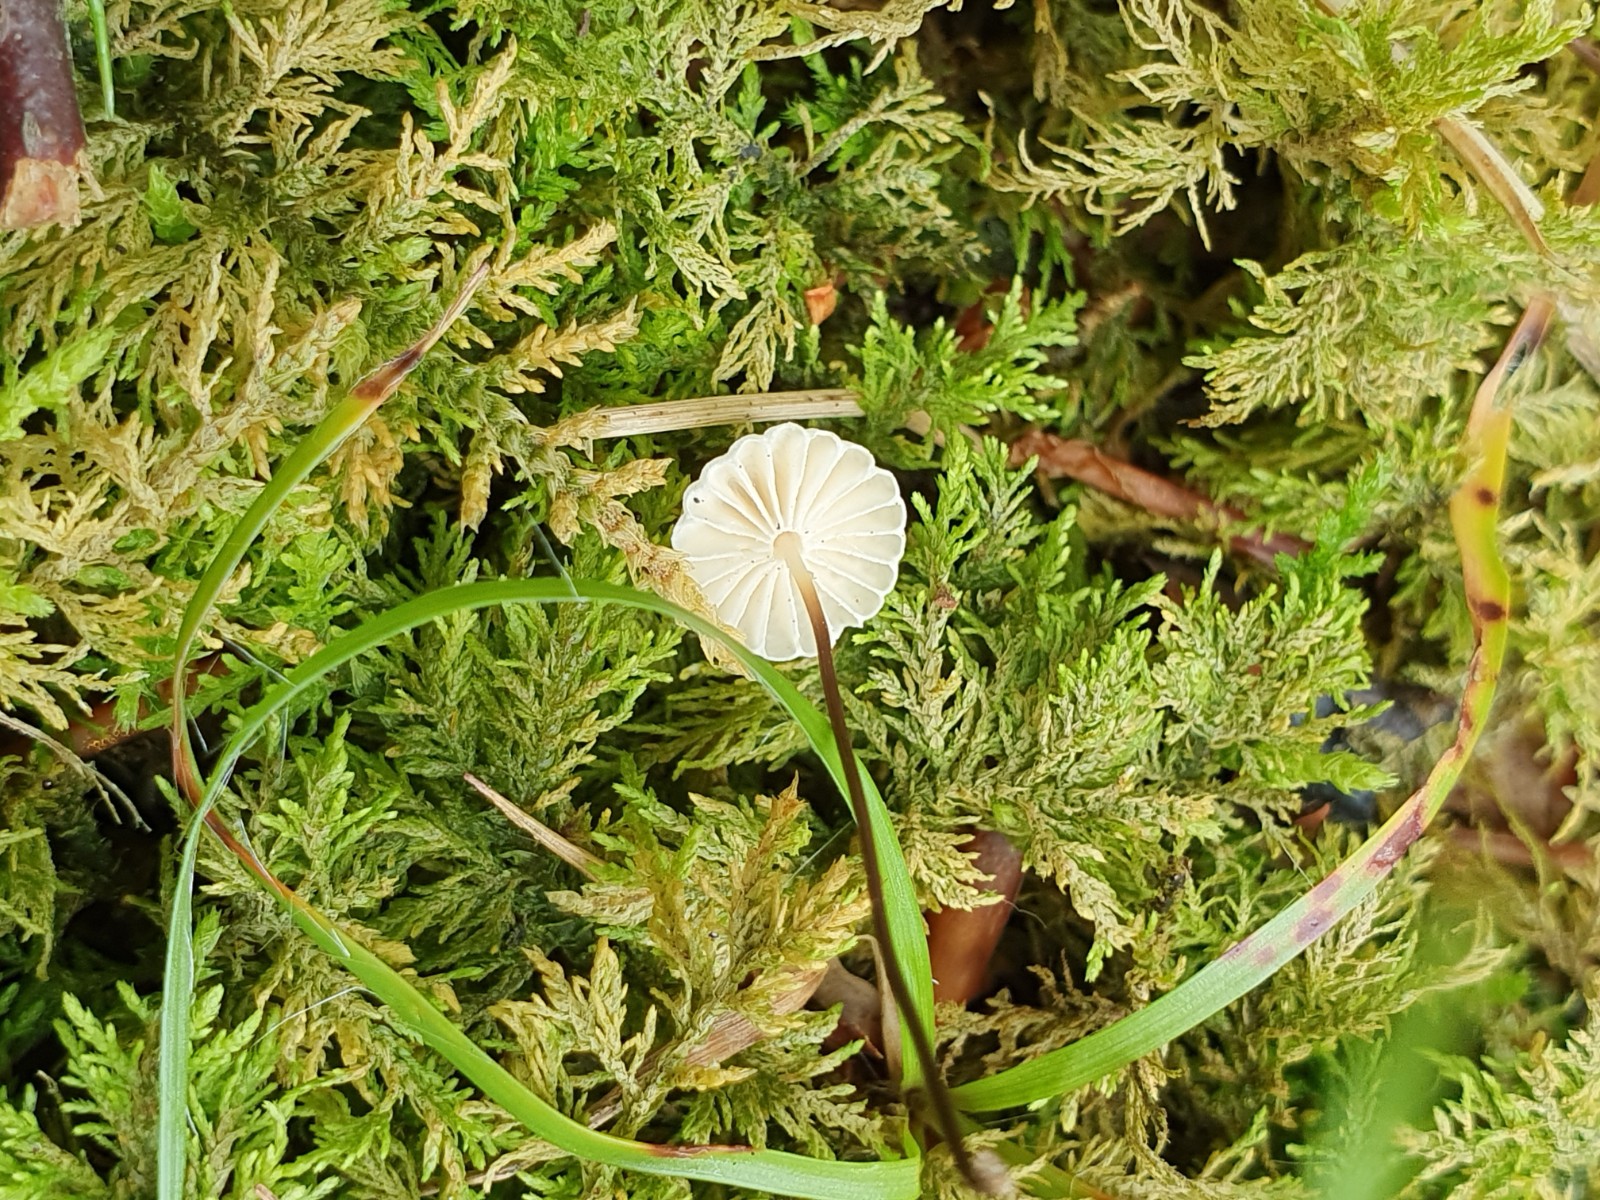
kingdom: Fungi
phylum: Basidiomycota
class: Agaricomycetes
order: Agaricales
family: Marasmiaceae
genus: Marasmius
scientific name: Marasmius rotula
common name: hjul-bruskhat
